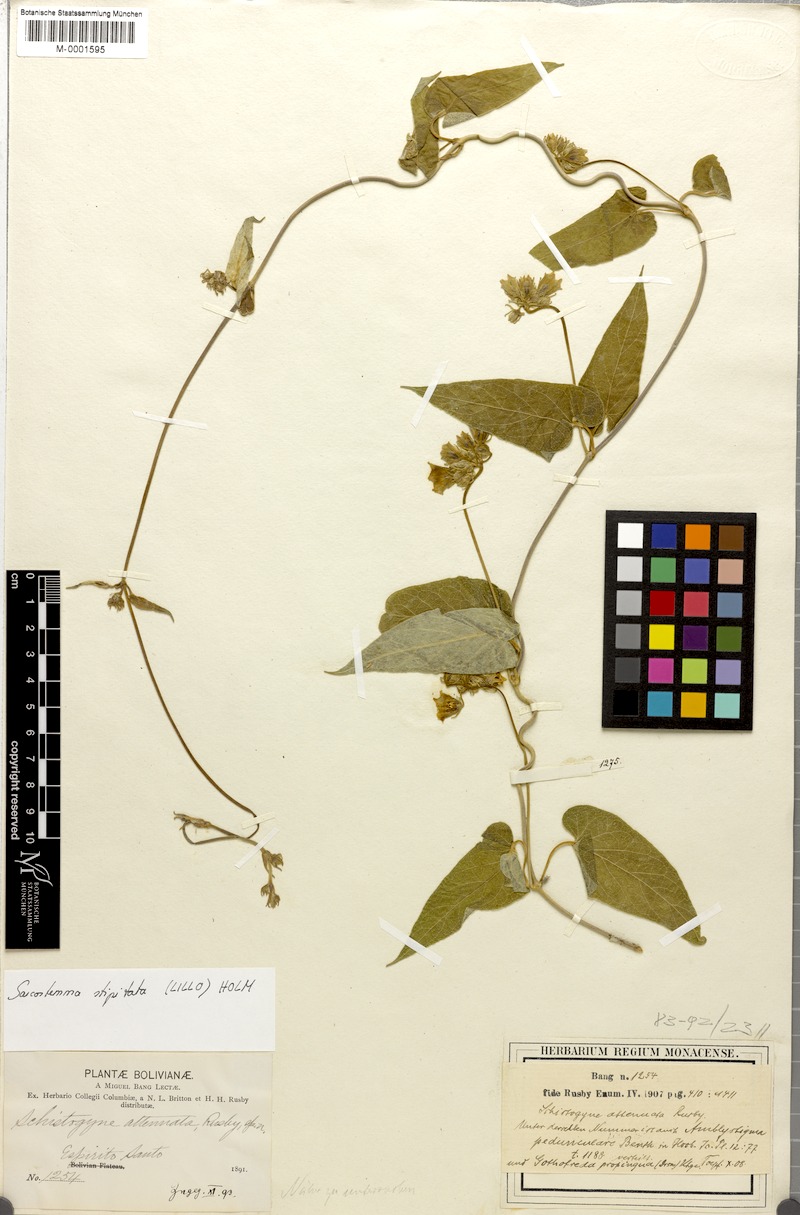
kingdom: Plantae
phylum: Tracheophyta
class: Magnoliopsida
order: Gentianales
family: Apocynaceae
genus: Philibertia
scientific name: Philibertia stipitata
